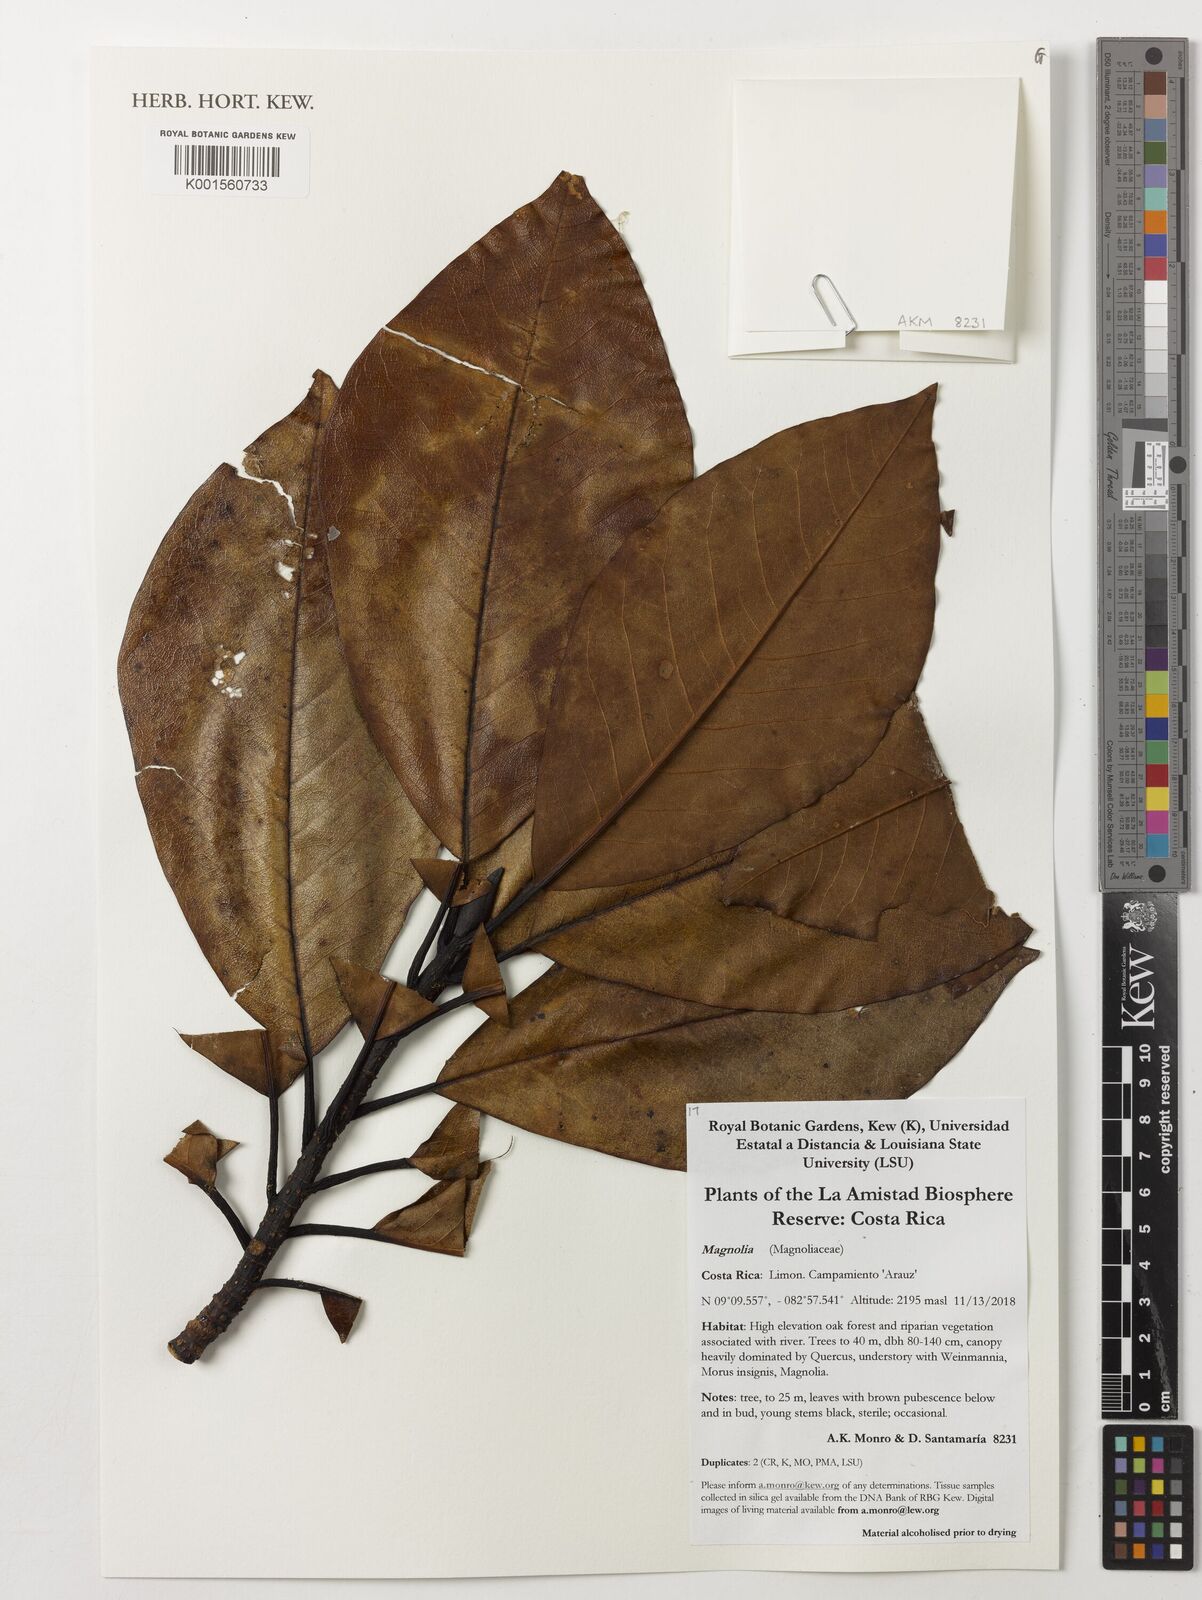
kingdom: Plantae
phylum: Tracheophyta
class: Magnoliopsida
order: Magnoliales
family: Magnoliaceae
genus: Magnolia
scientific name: Magnolia
